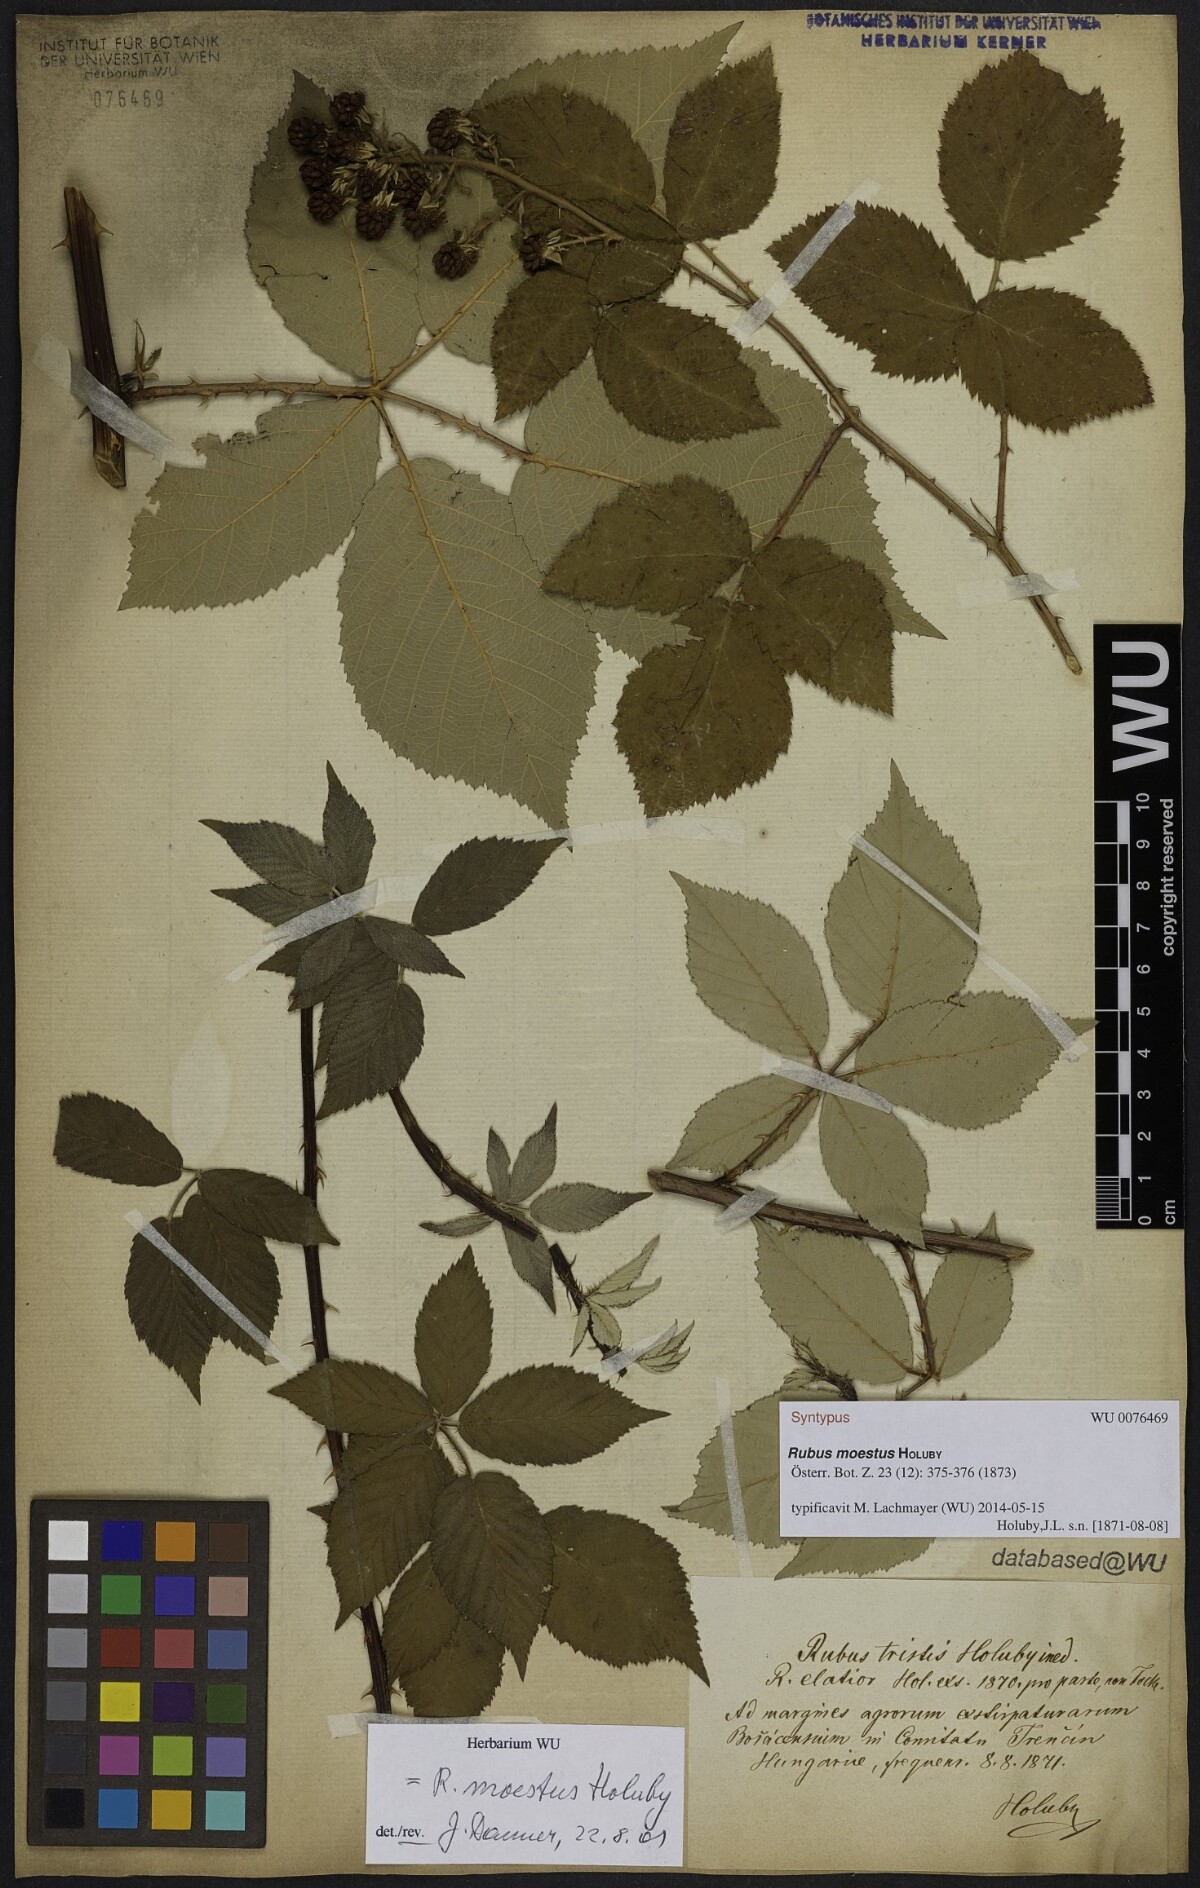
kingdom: Plantae
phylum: Tracheophyta
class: Magnoliopsida
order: Rosales
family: Rosaceae
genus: Rubus
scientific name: Rubus moestus
